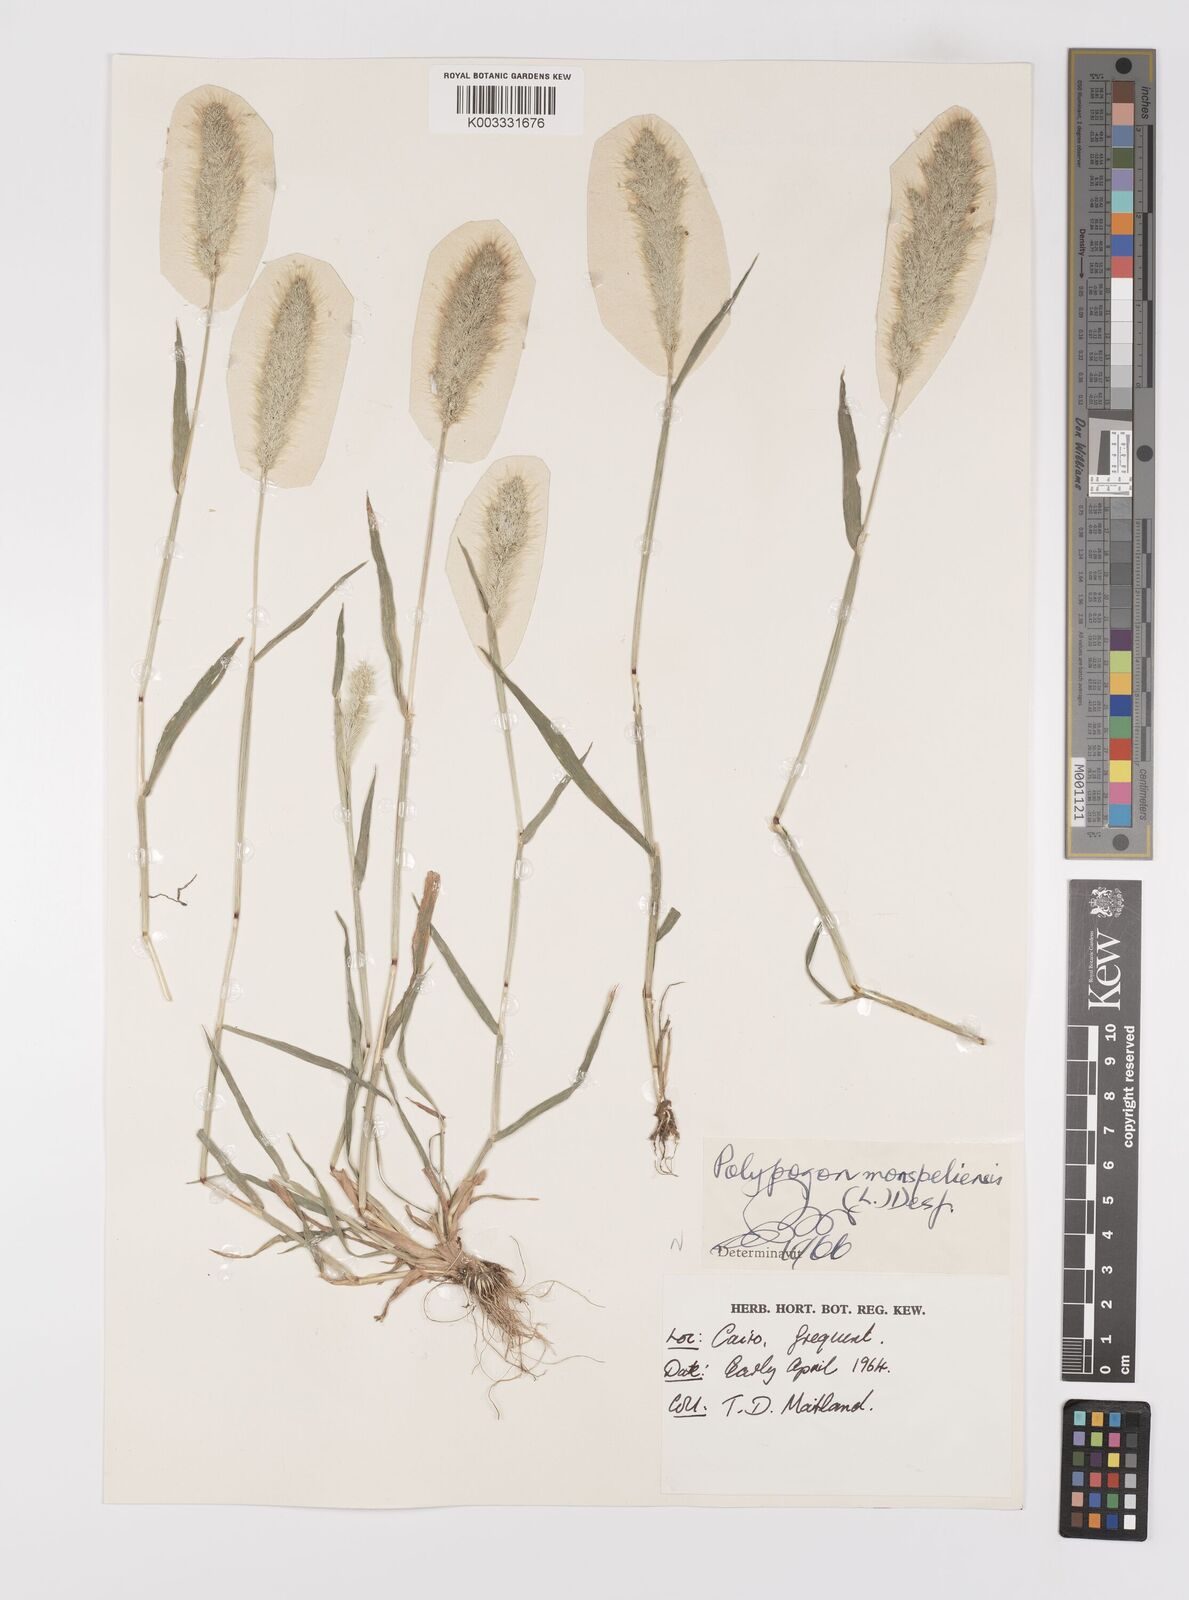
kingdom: Plantae
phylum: Tracheophyta
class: Liliopsida
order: Poales
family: Poaceae
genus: Polypogon
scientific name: Polypogon monspeliensis
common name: Annual rabbitsfoot grass
